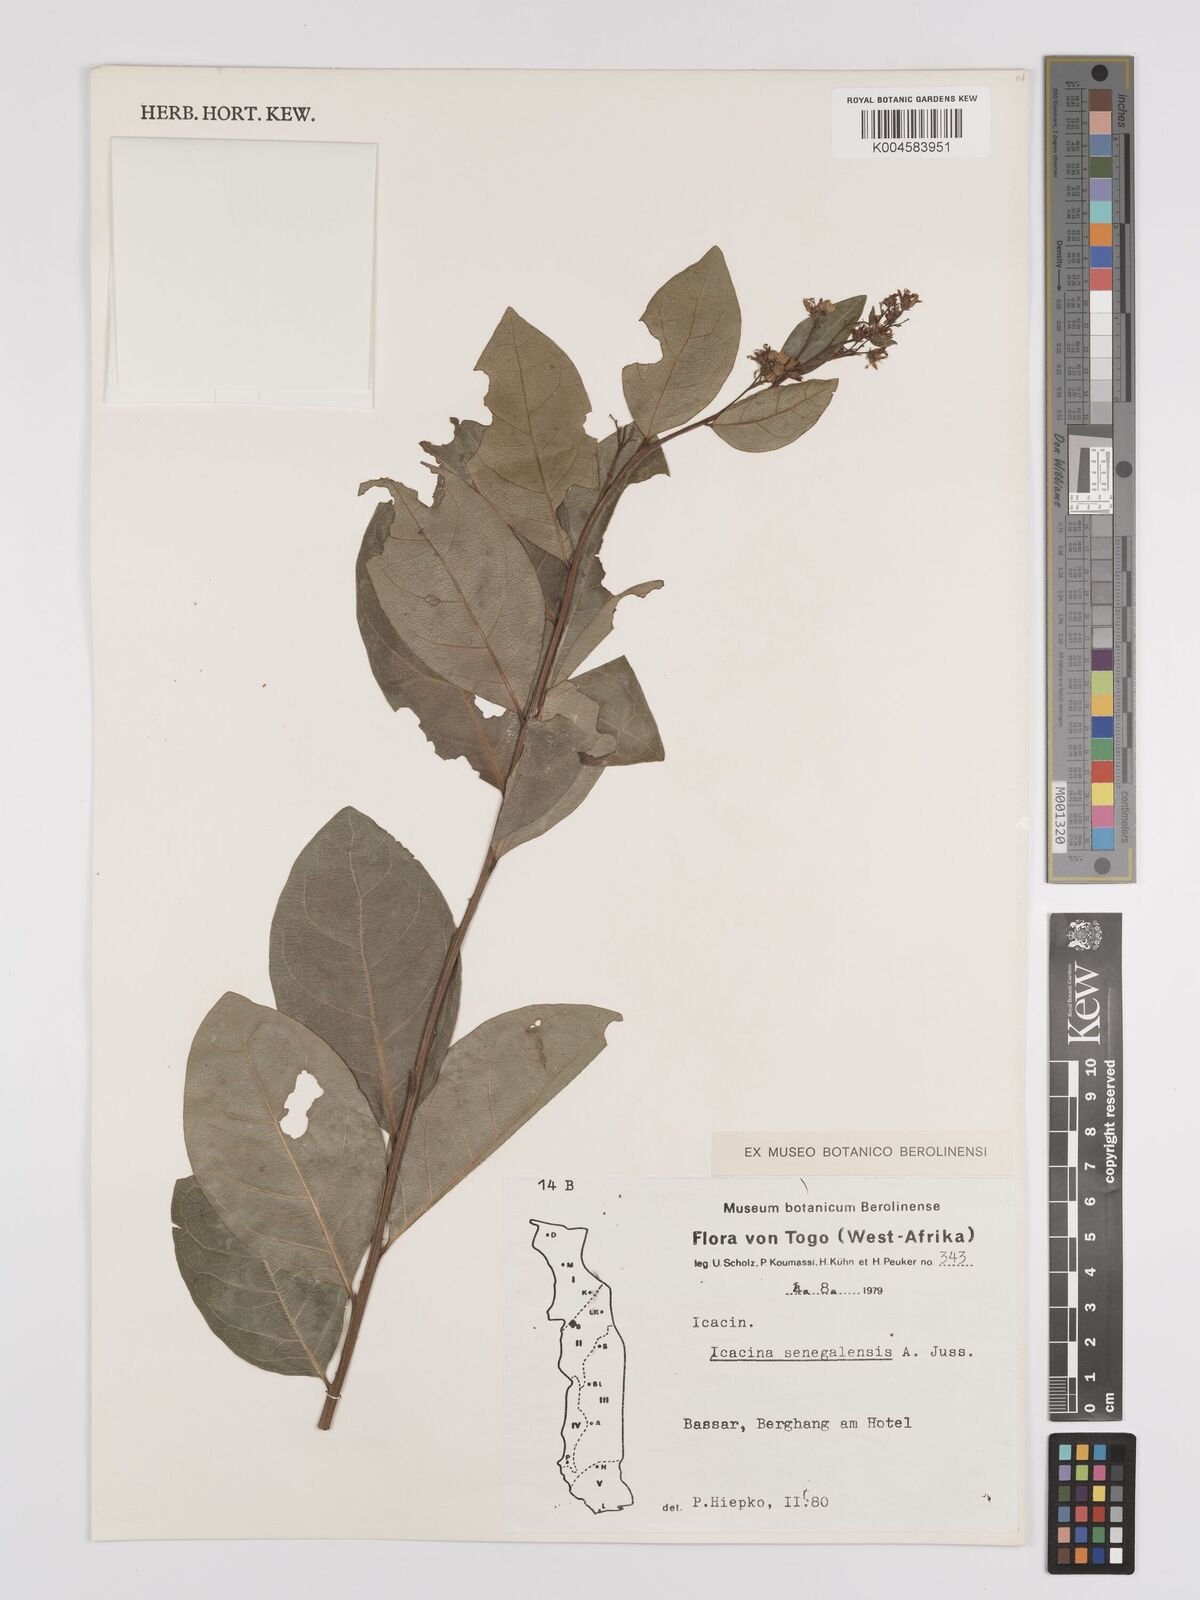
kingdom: Plantae
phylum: Tracheophyta
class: Magnoliopsida
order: Icacinales
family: Icacinaceae
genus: Icacina
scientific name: Icacina oliviformis
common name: False yam
